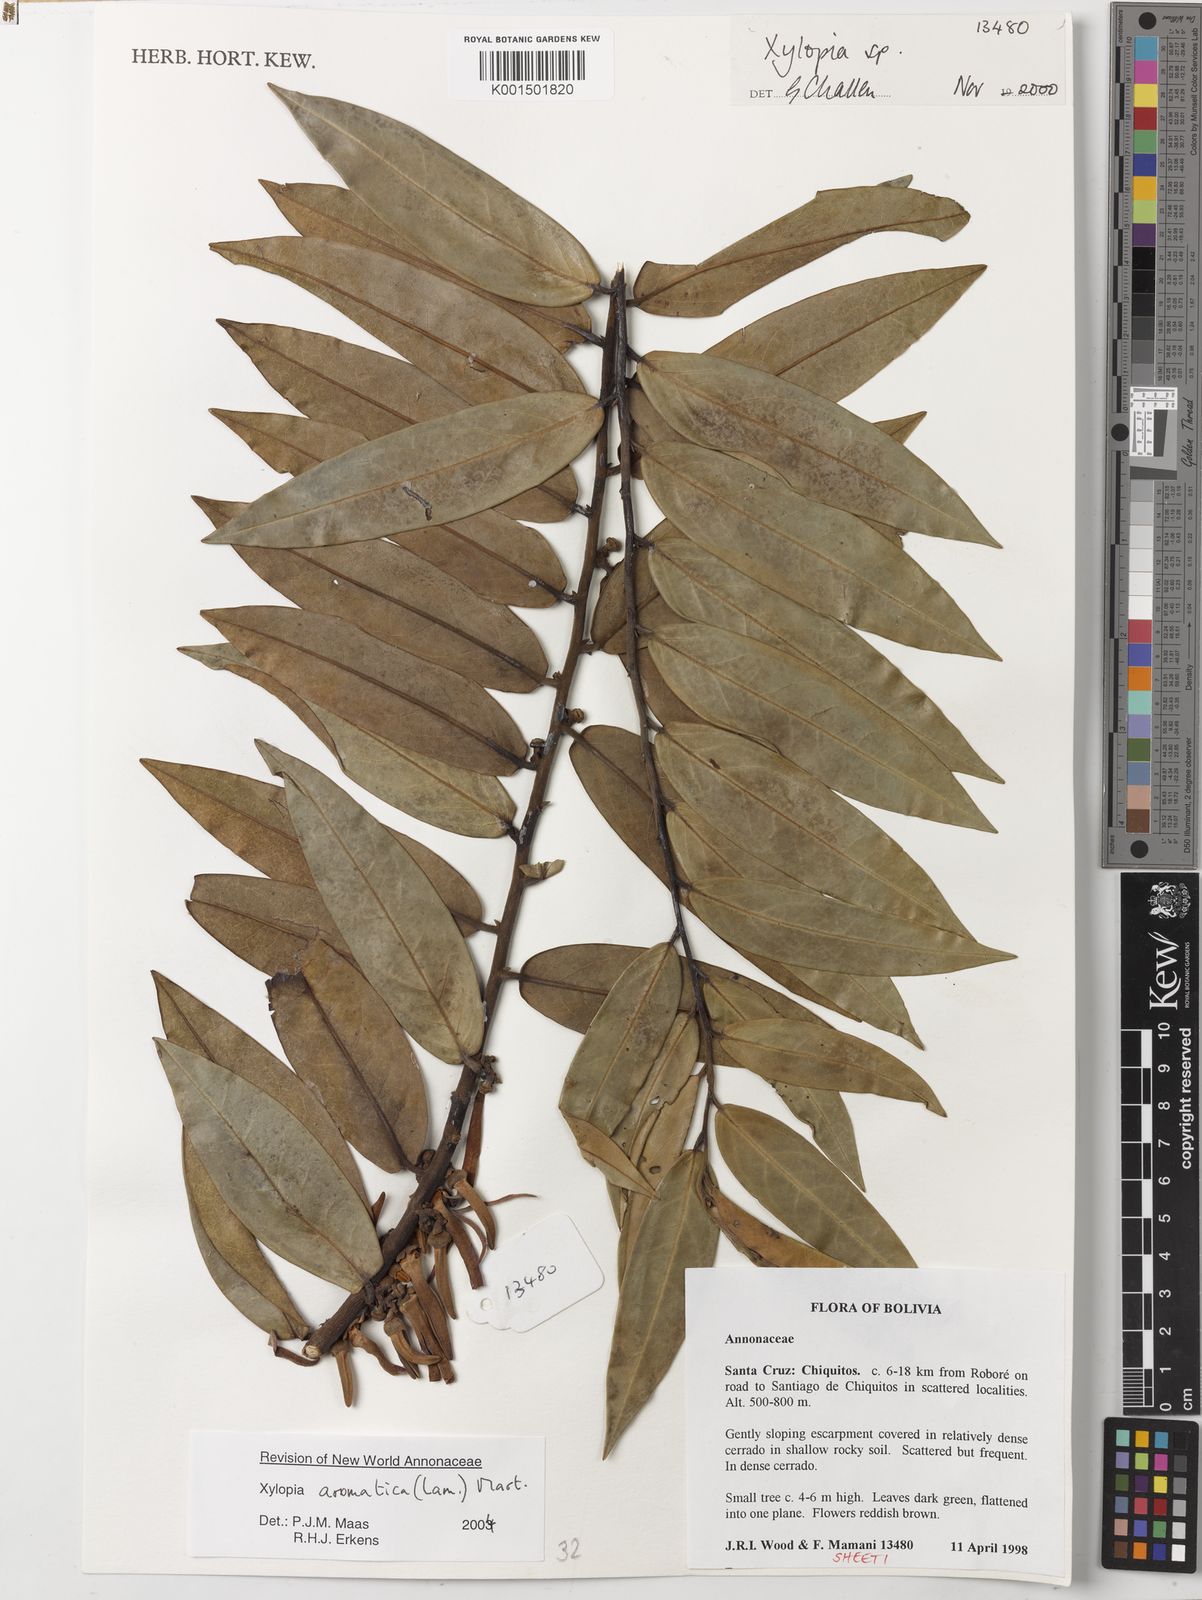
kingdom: Plantae
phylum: Tracheophyta
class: Magnoliopsida
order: Magnoliales
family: Annonaceae
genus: Xylopia
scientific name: Xylopia aromatica
